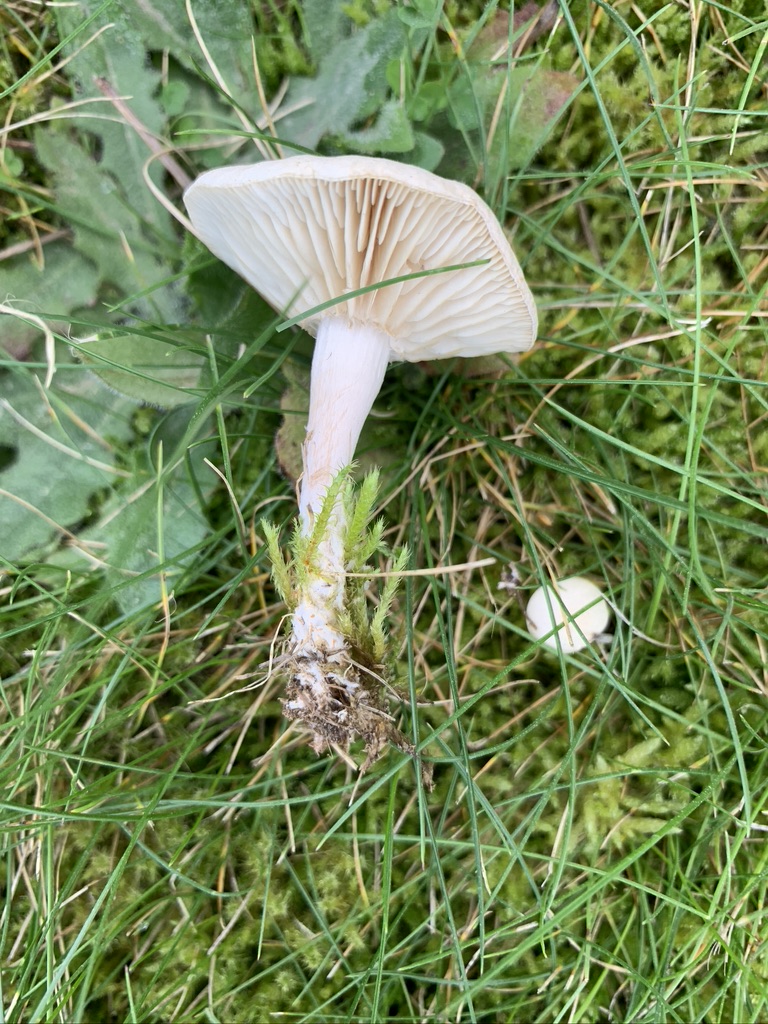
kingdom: Fungi
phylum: Basidiomycota
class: Agaricomycetes
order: Agaricales
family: Tricholomataceae
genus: Clitocybe
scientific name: Clitocybe agrestis
